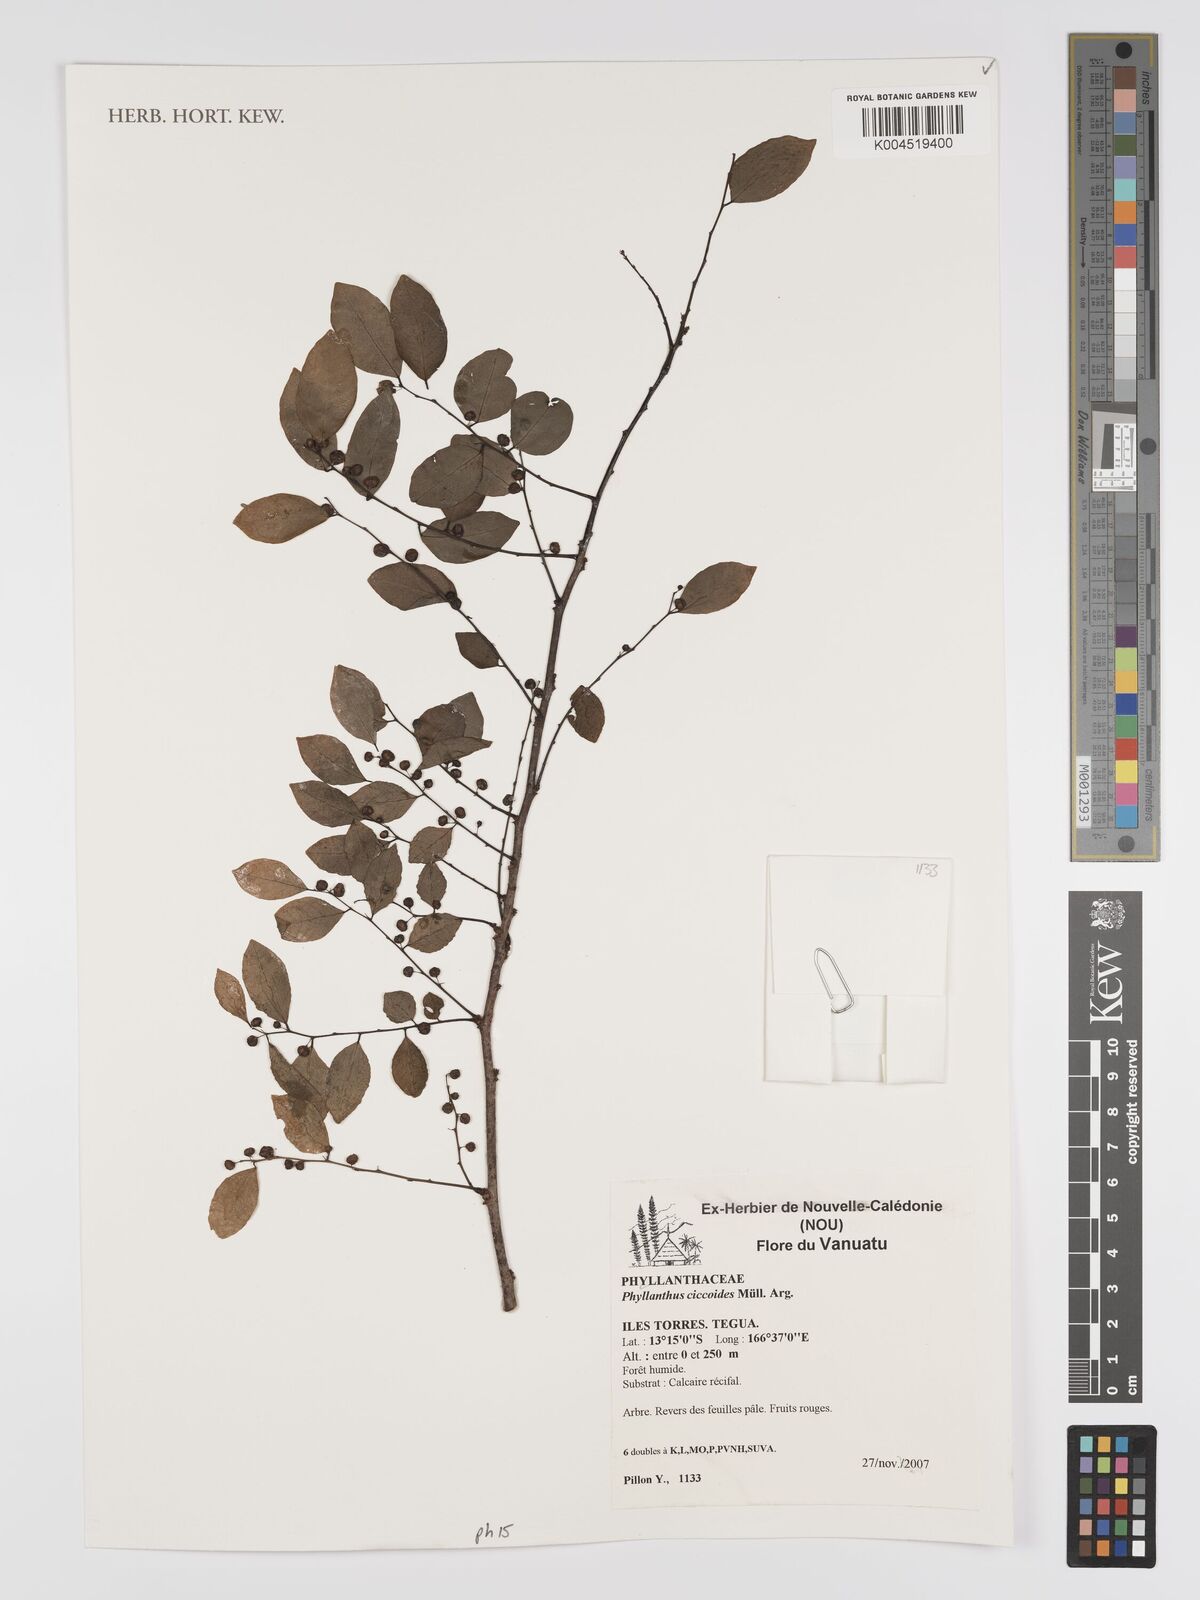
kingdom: Plantae
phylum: Tracheophyta
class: Magnoliopsida
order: Malpighiales
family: Phyllanthaceae
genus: Phyllanthus
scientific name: Phyllanthus ciccoides
